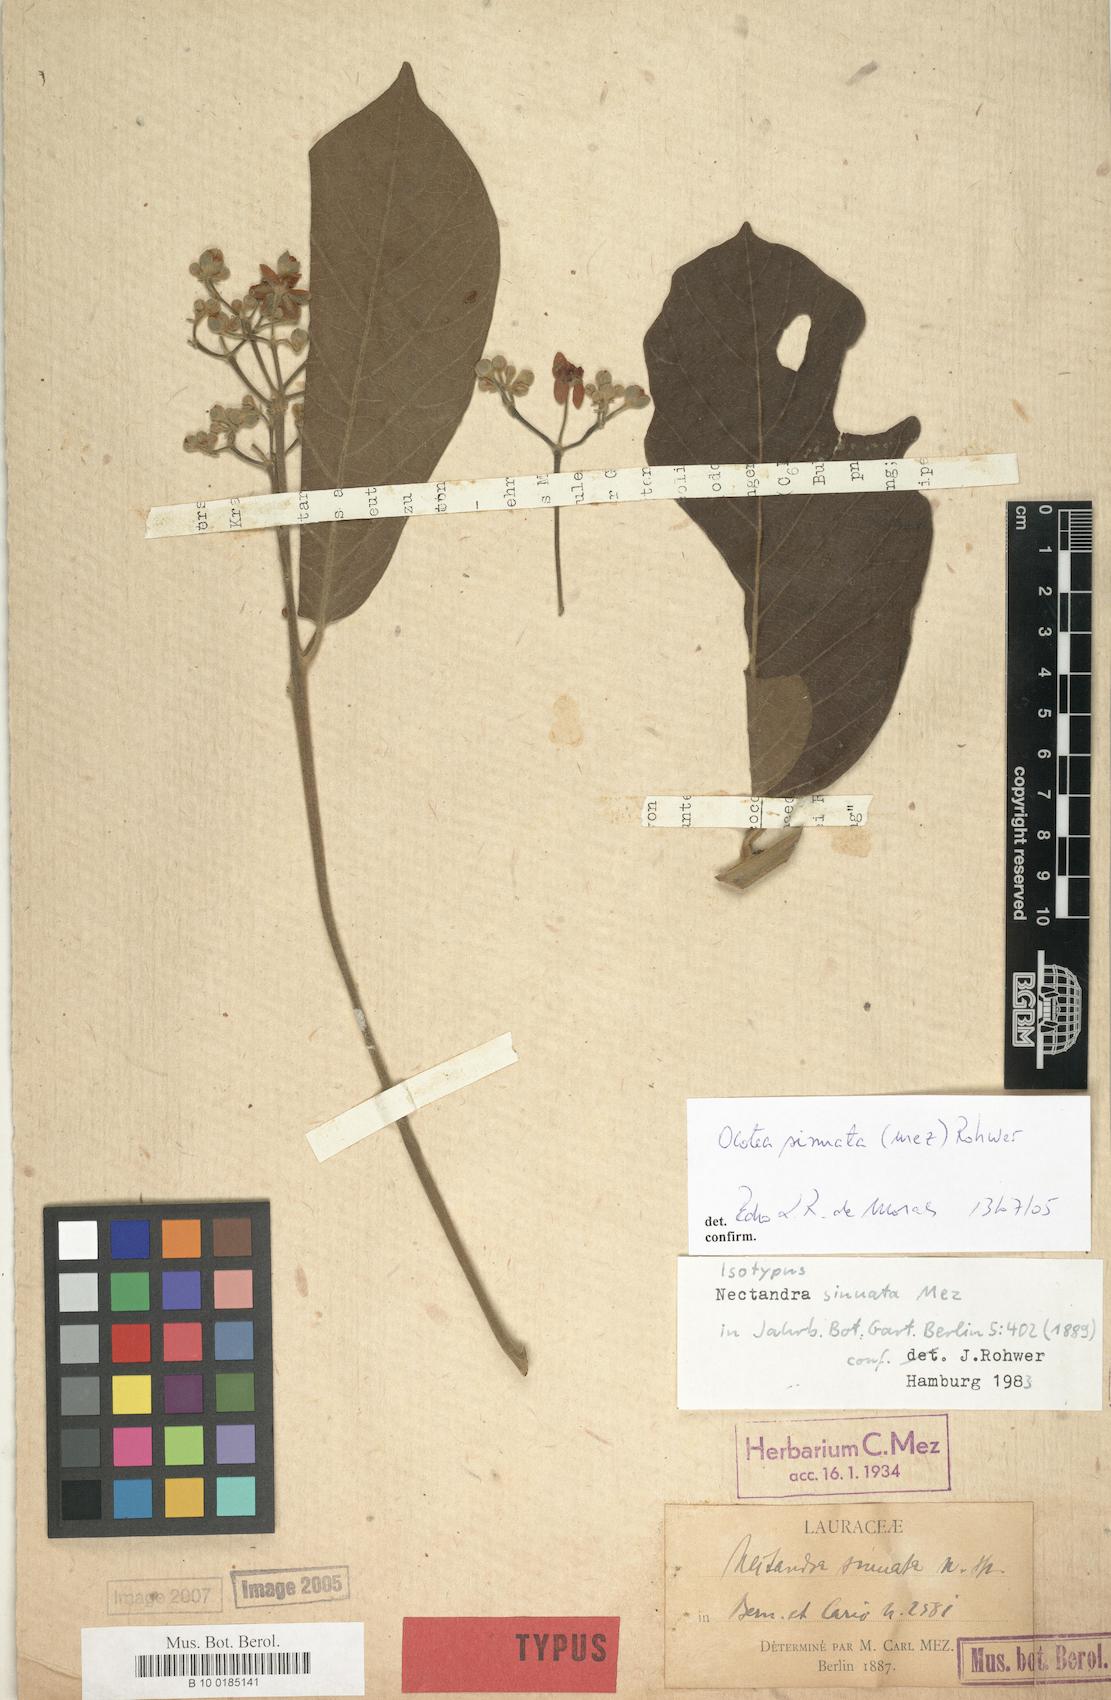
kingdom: Plantae
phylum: Tracheophyta
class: Magnoliopsida
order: Laurales
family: Lauraceae
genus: Ocotea
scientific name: Ocotea sinuata
